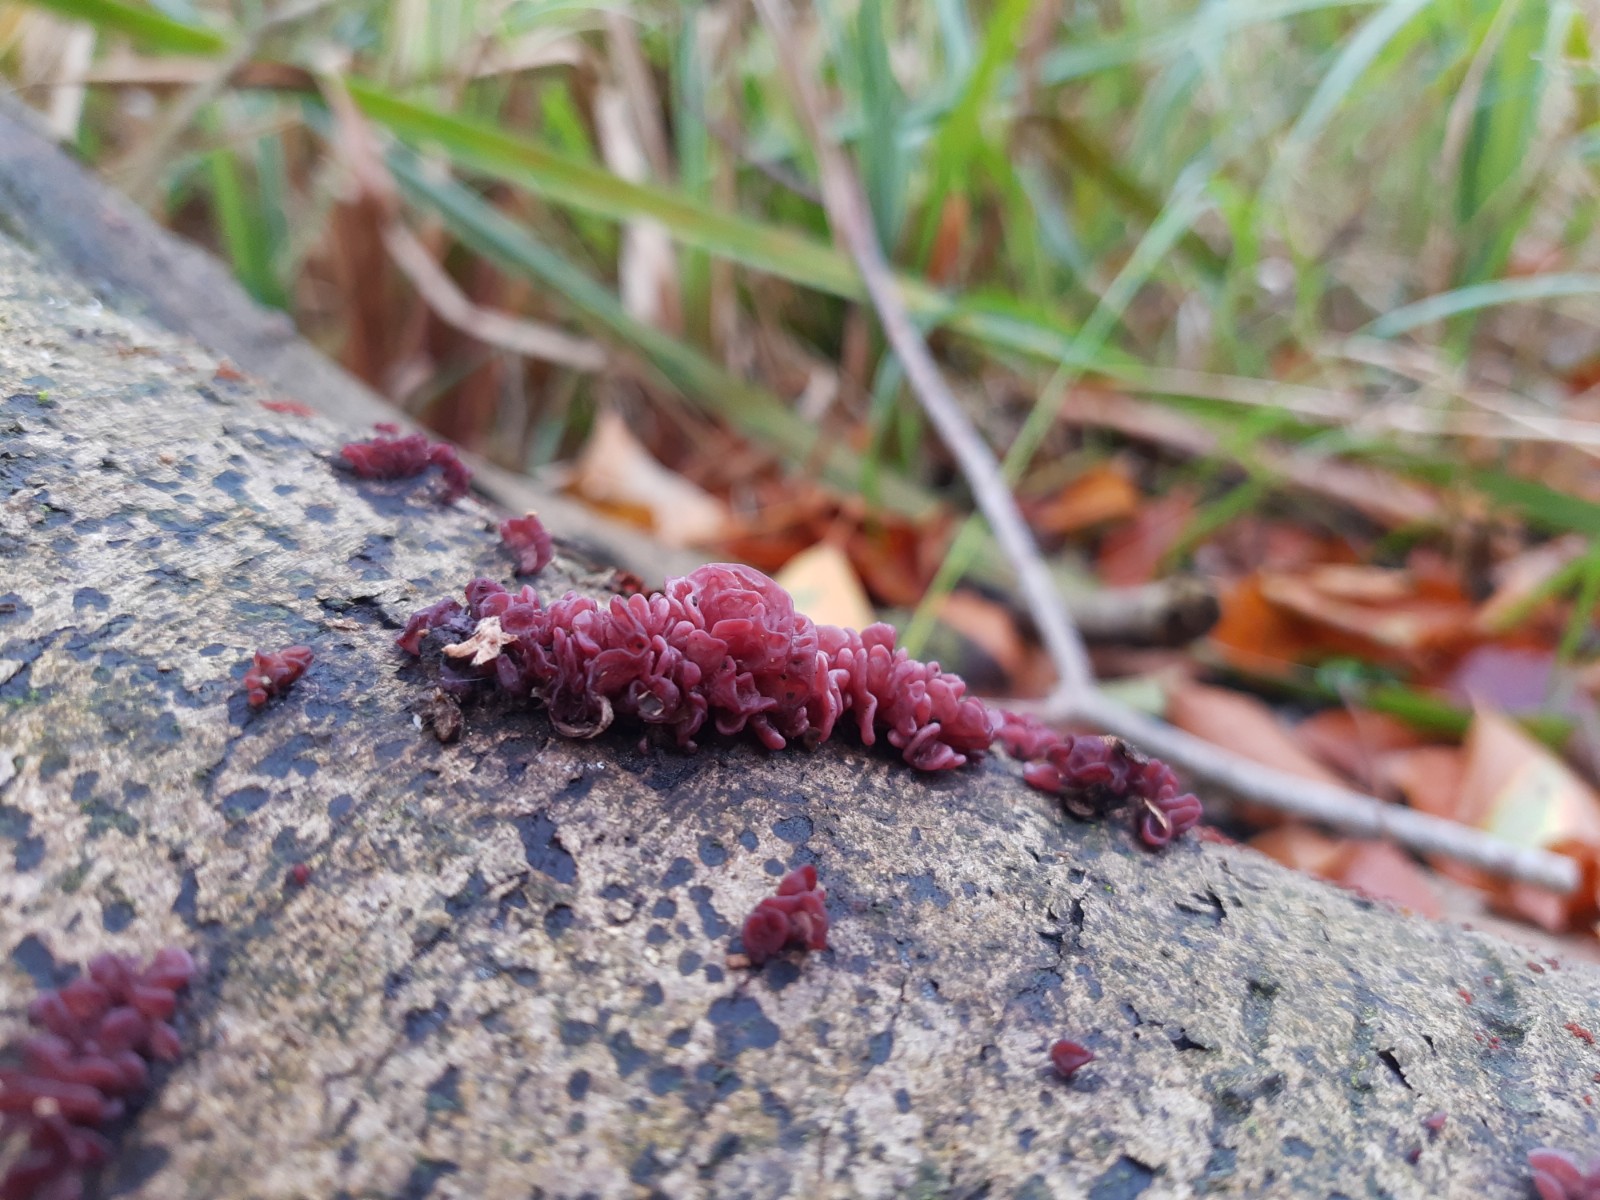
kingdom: Fungi
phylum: Ascomycota
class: Leotiomycetes
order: Helotiales
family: Gelatinodiscaceae
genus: Ascocoryne
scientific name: Ascocoryne sarcoides
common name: rødlilla sejskive
